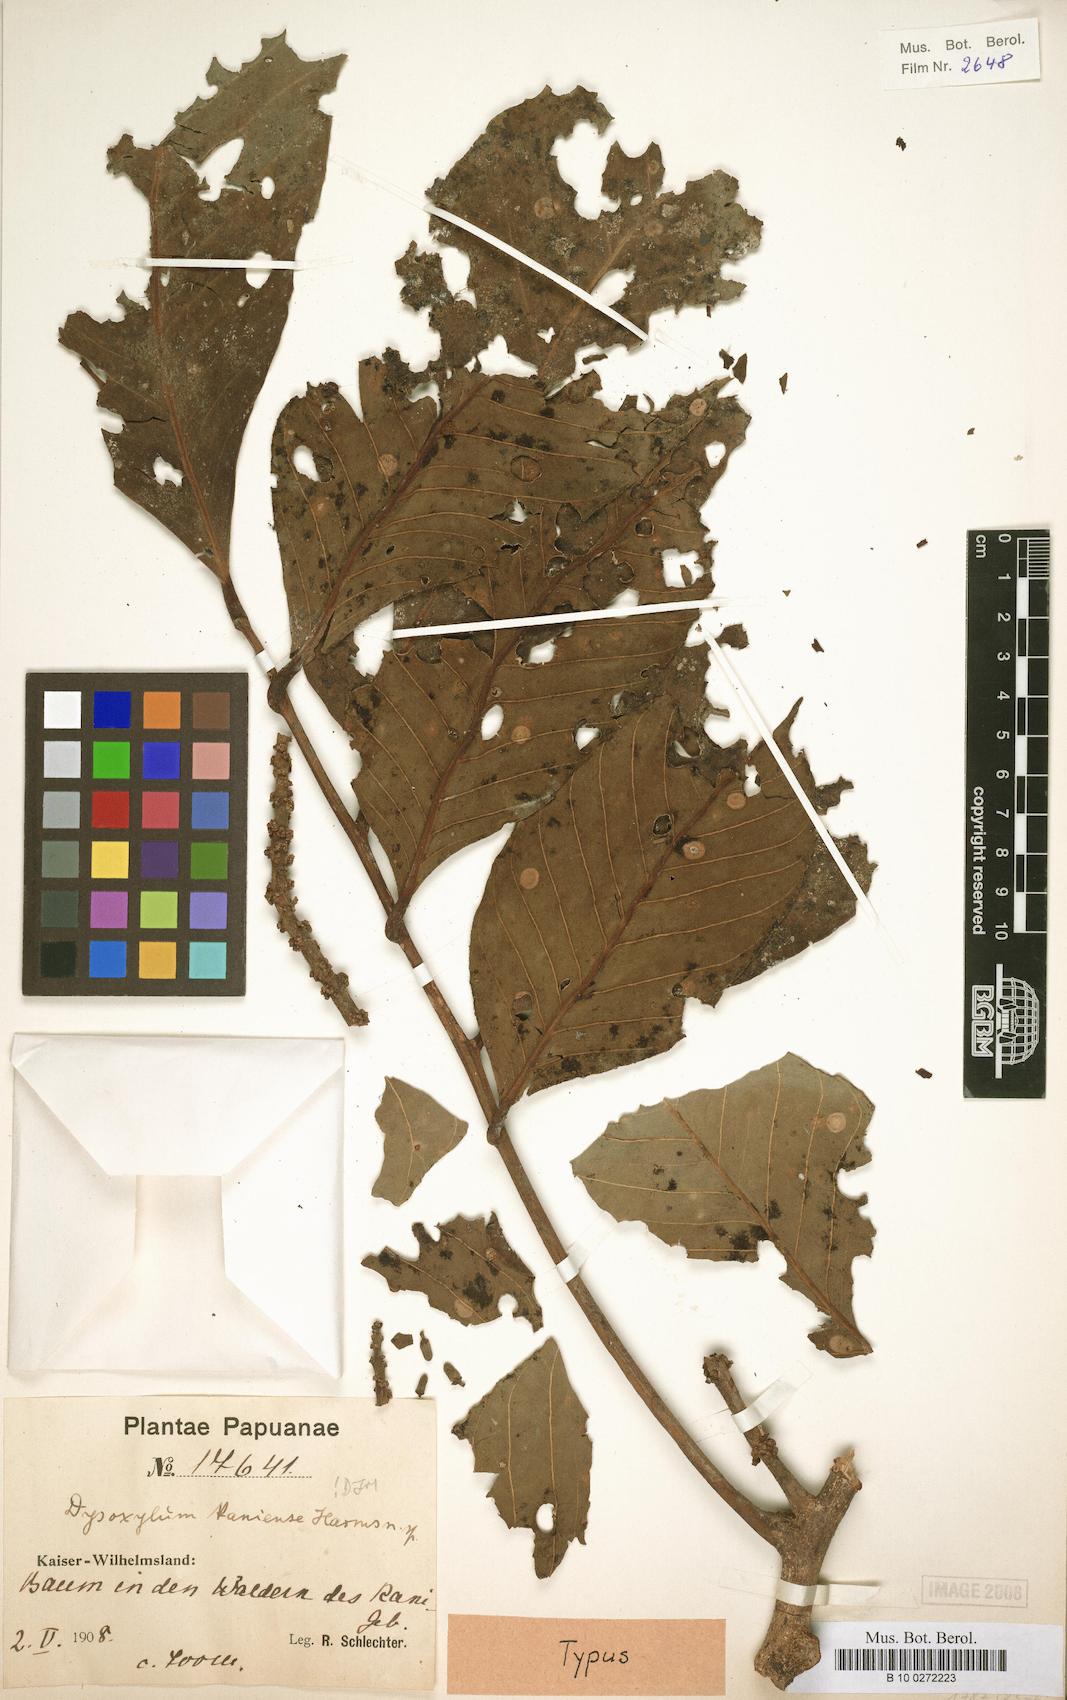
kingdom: Plantae
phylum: Tracheophyta
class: Magnoliopsida
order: Sapindales
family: Meliaceae
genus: Dysoxylum
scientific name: Dysoxylum kaniense
